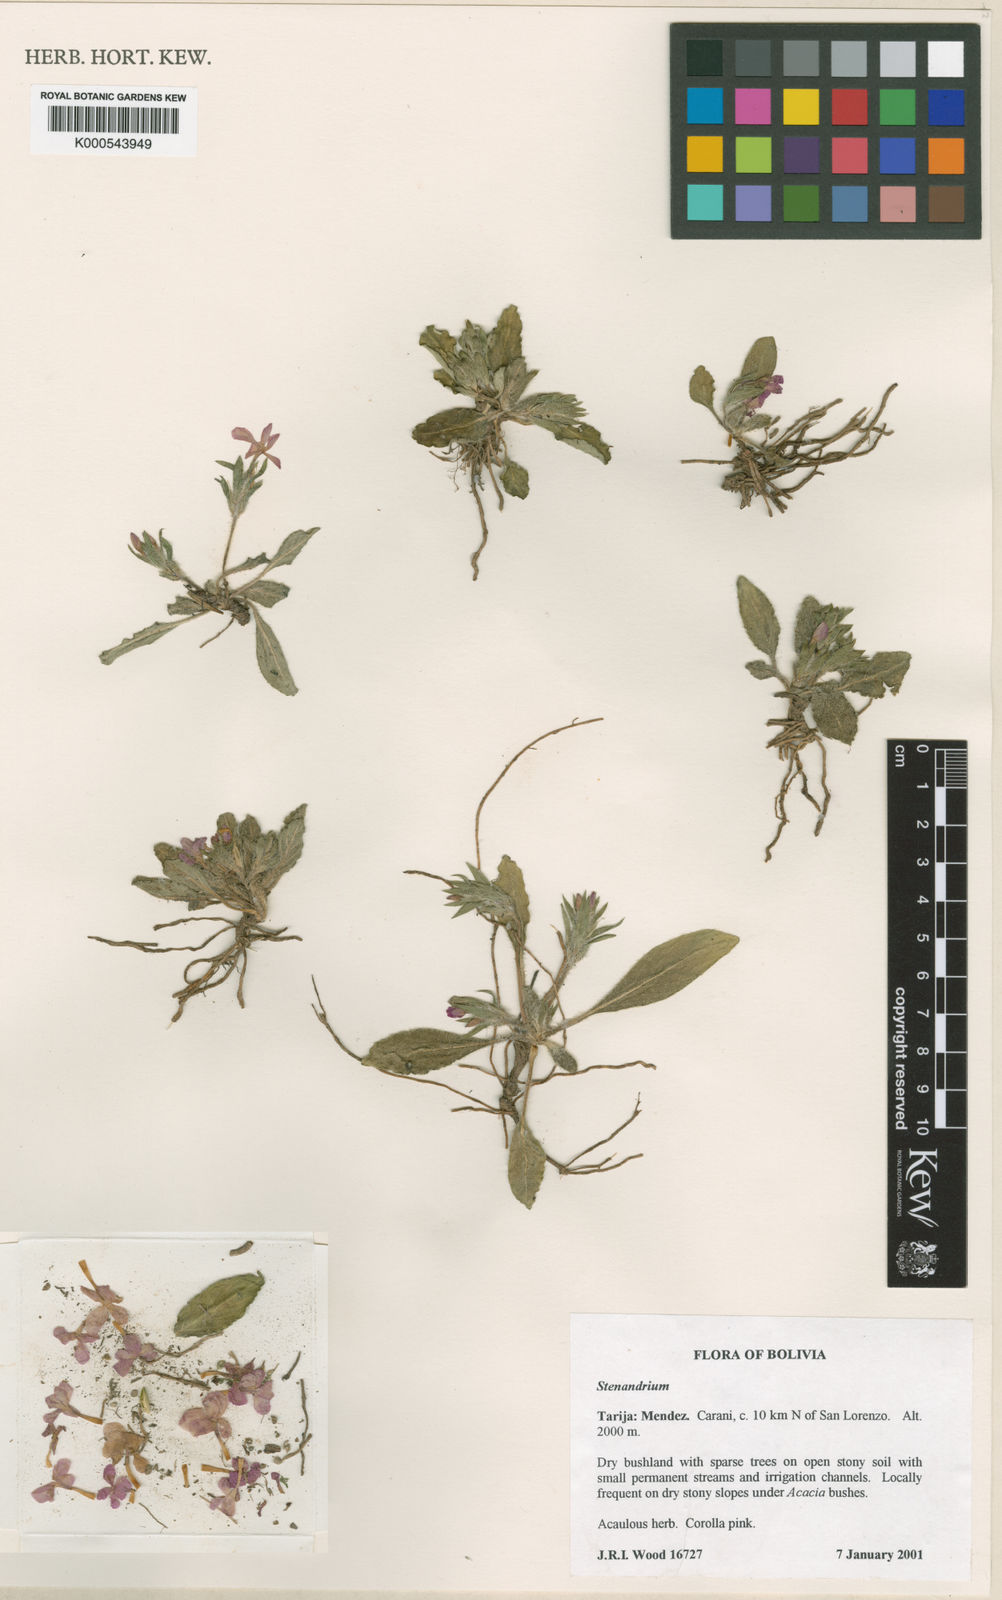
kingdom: Plantae
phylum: Tracheophyta
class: Magnoliopsida
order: Lamiales
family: Acanthaceae
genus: Stenandrium
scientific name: Stenandrium
